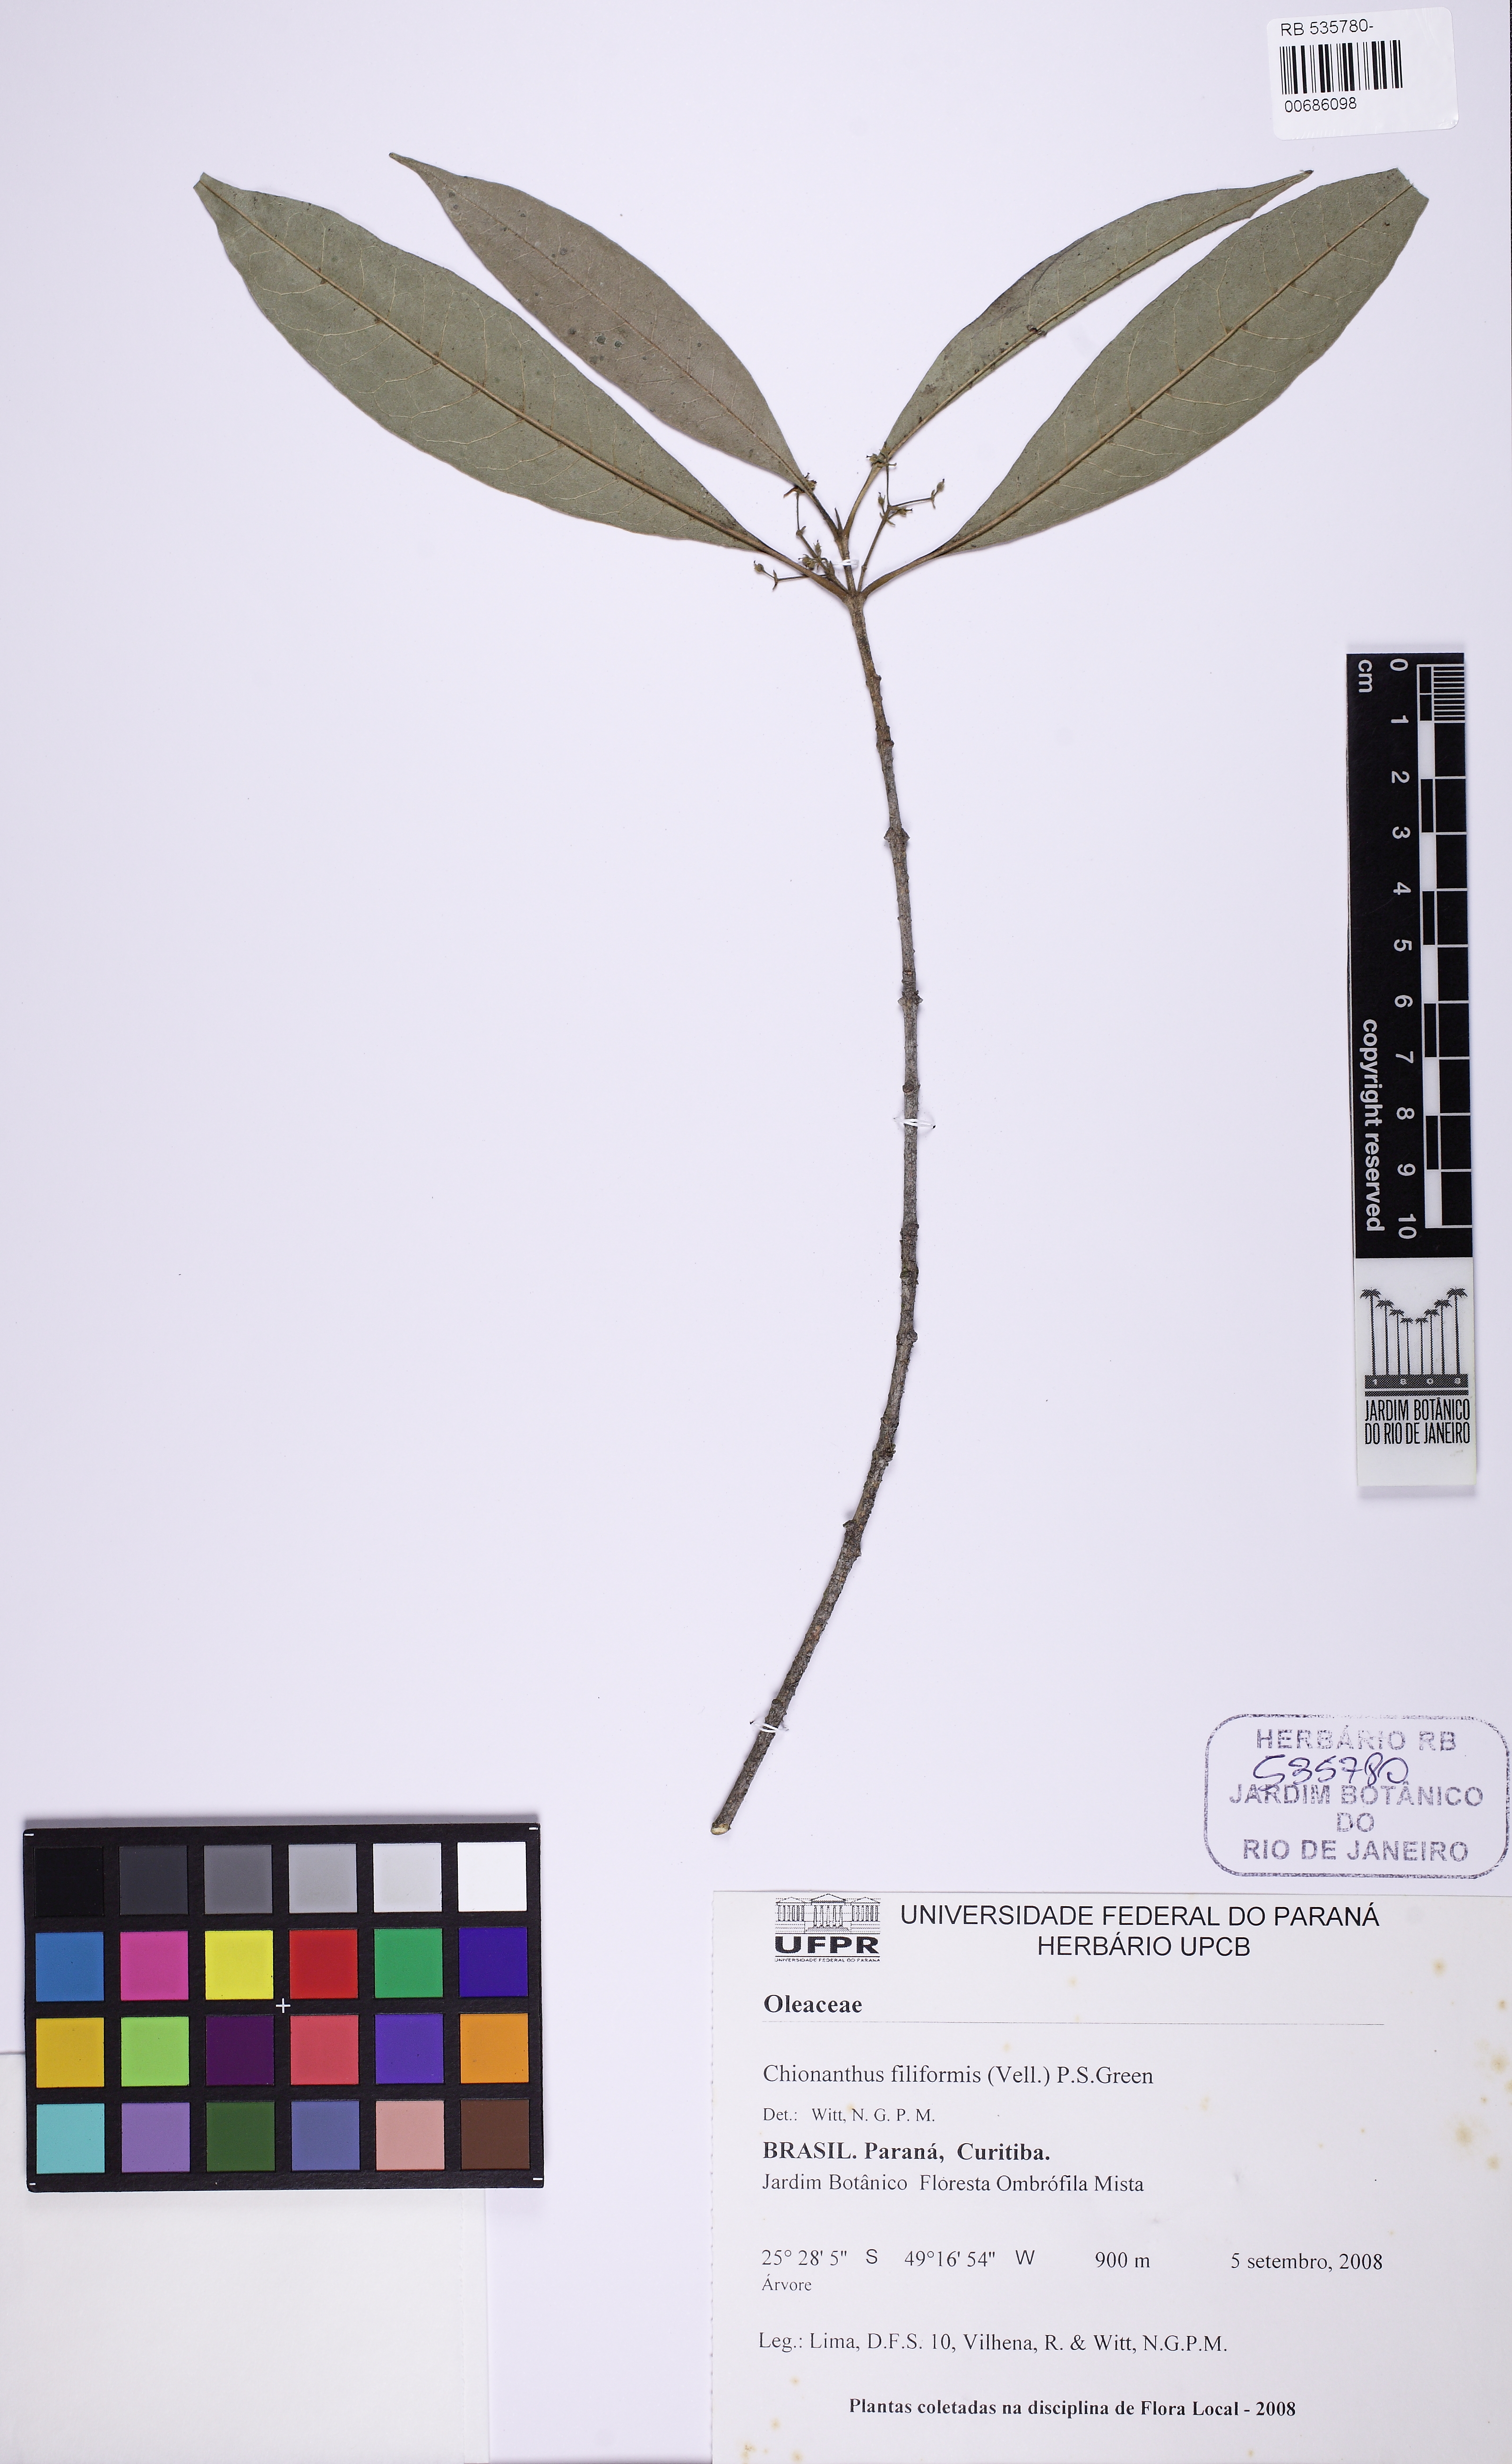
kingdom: Plantae
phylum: Tracheophyta
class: Magnoliopsida
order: Lamiales
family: Oleaceae
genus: Chionanthus
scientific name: Chionanthus filiformis
